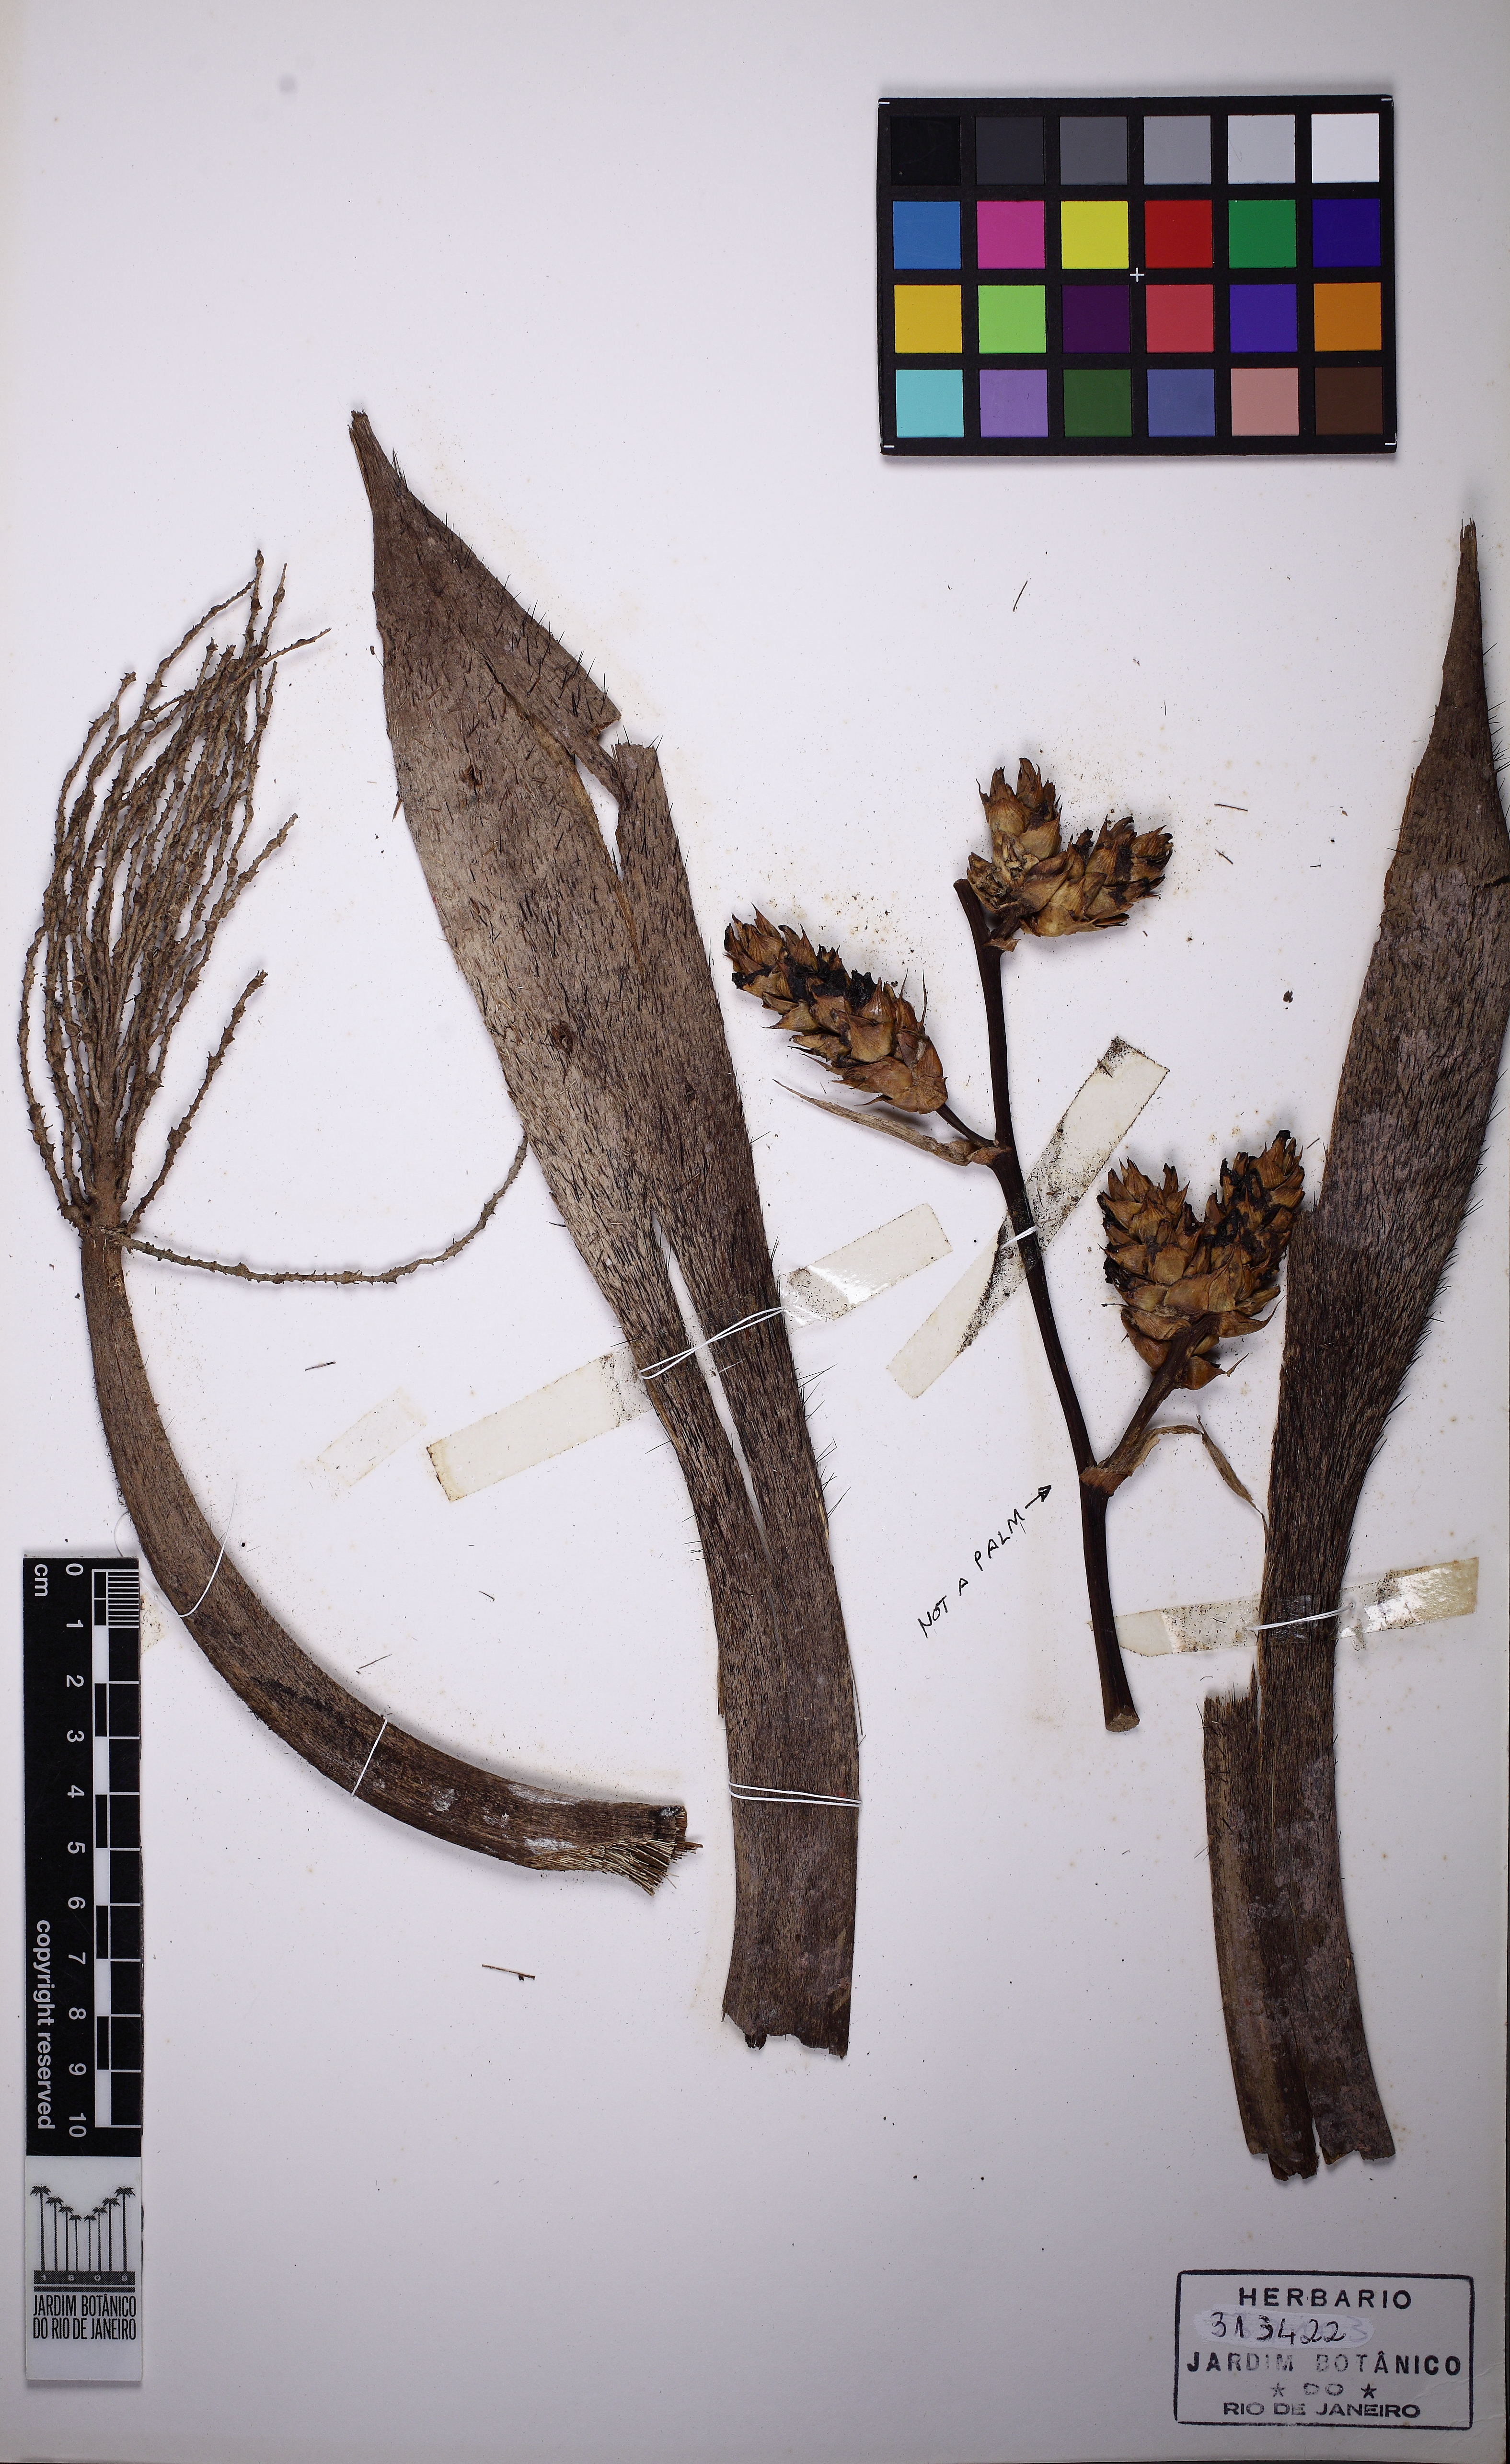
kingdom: Plantae
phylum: Tracheophyta
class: Liliopsida
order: Arecales
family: Arecaceae
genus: Bactris
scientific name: Bactris vulgaris
